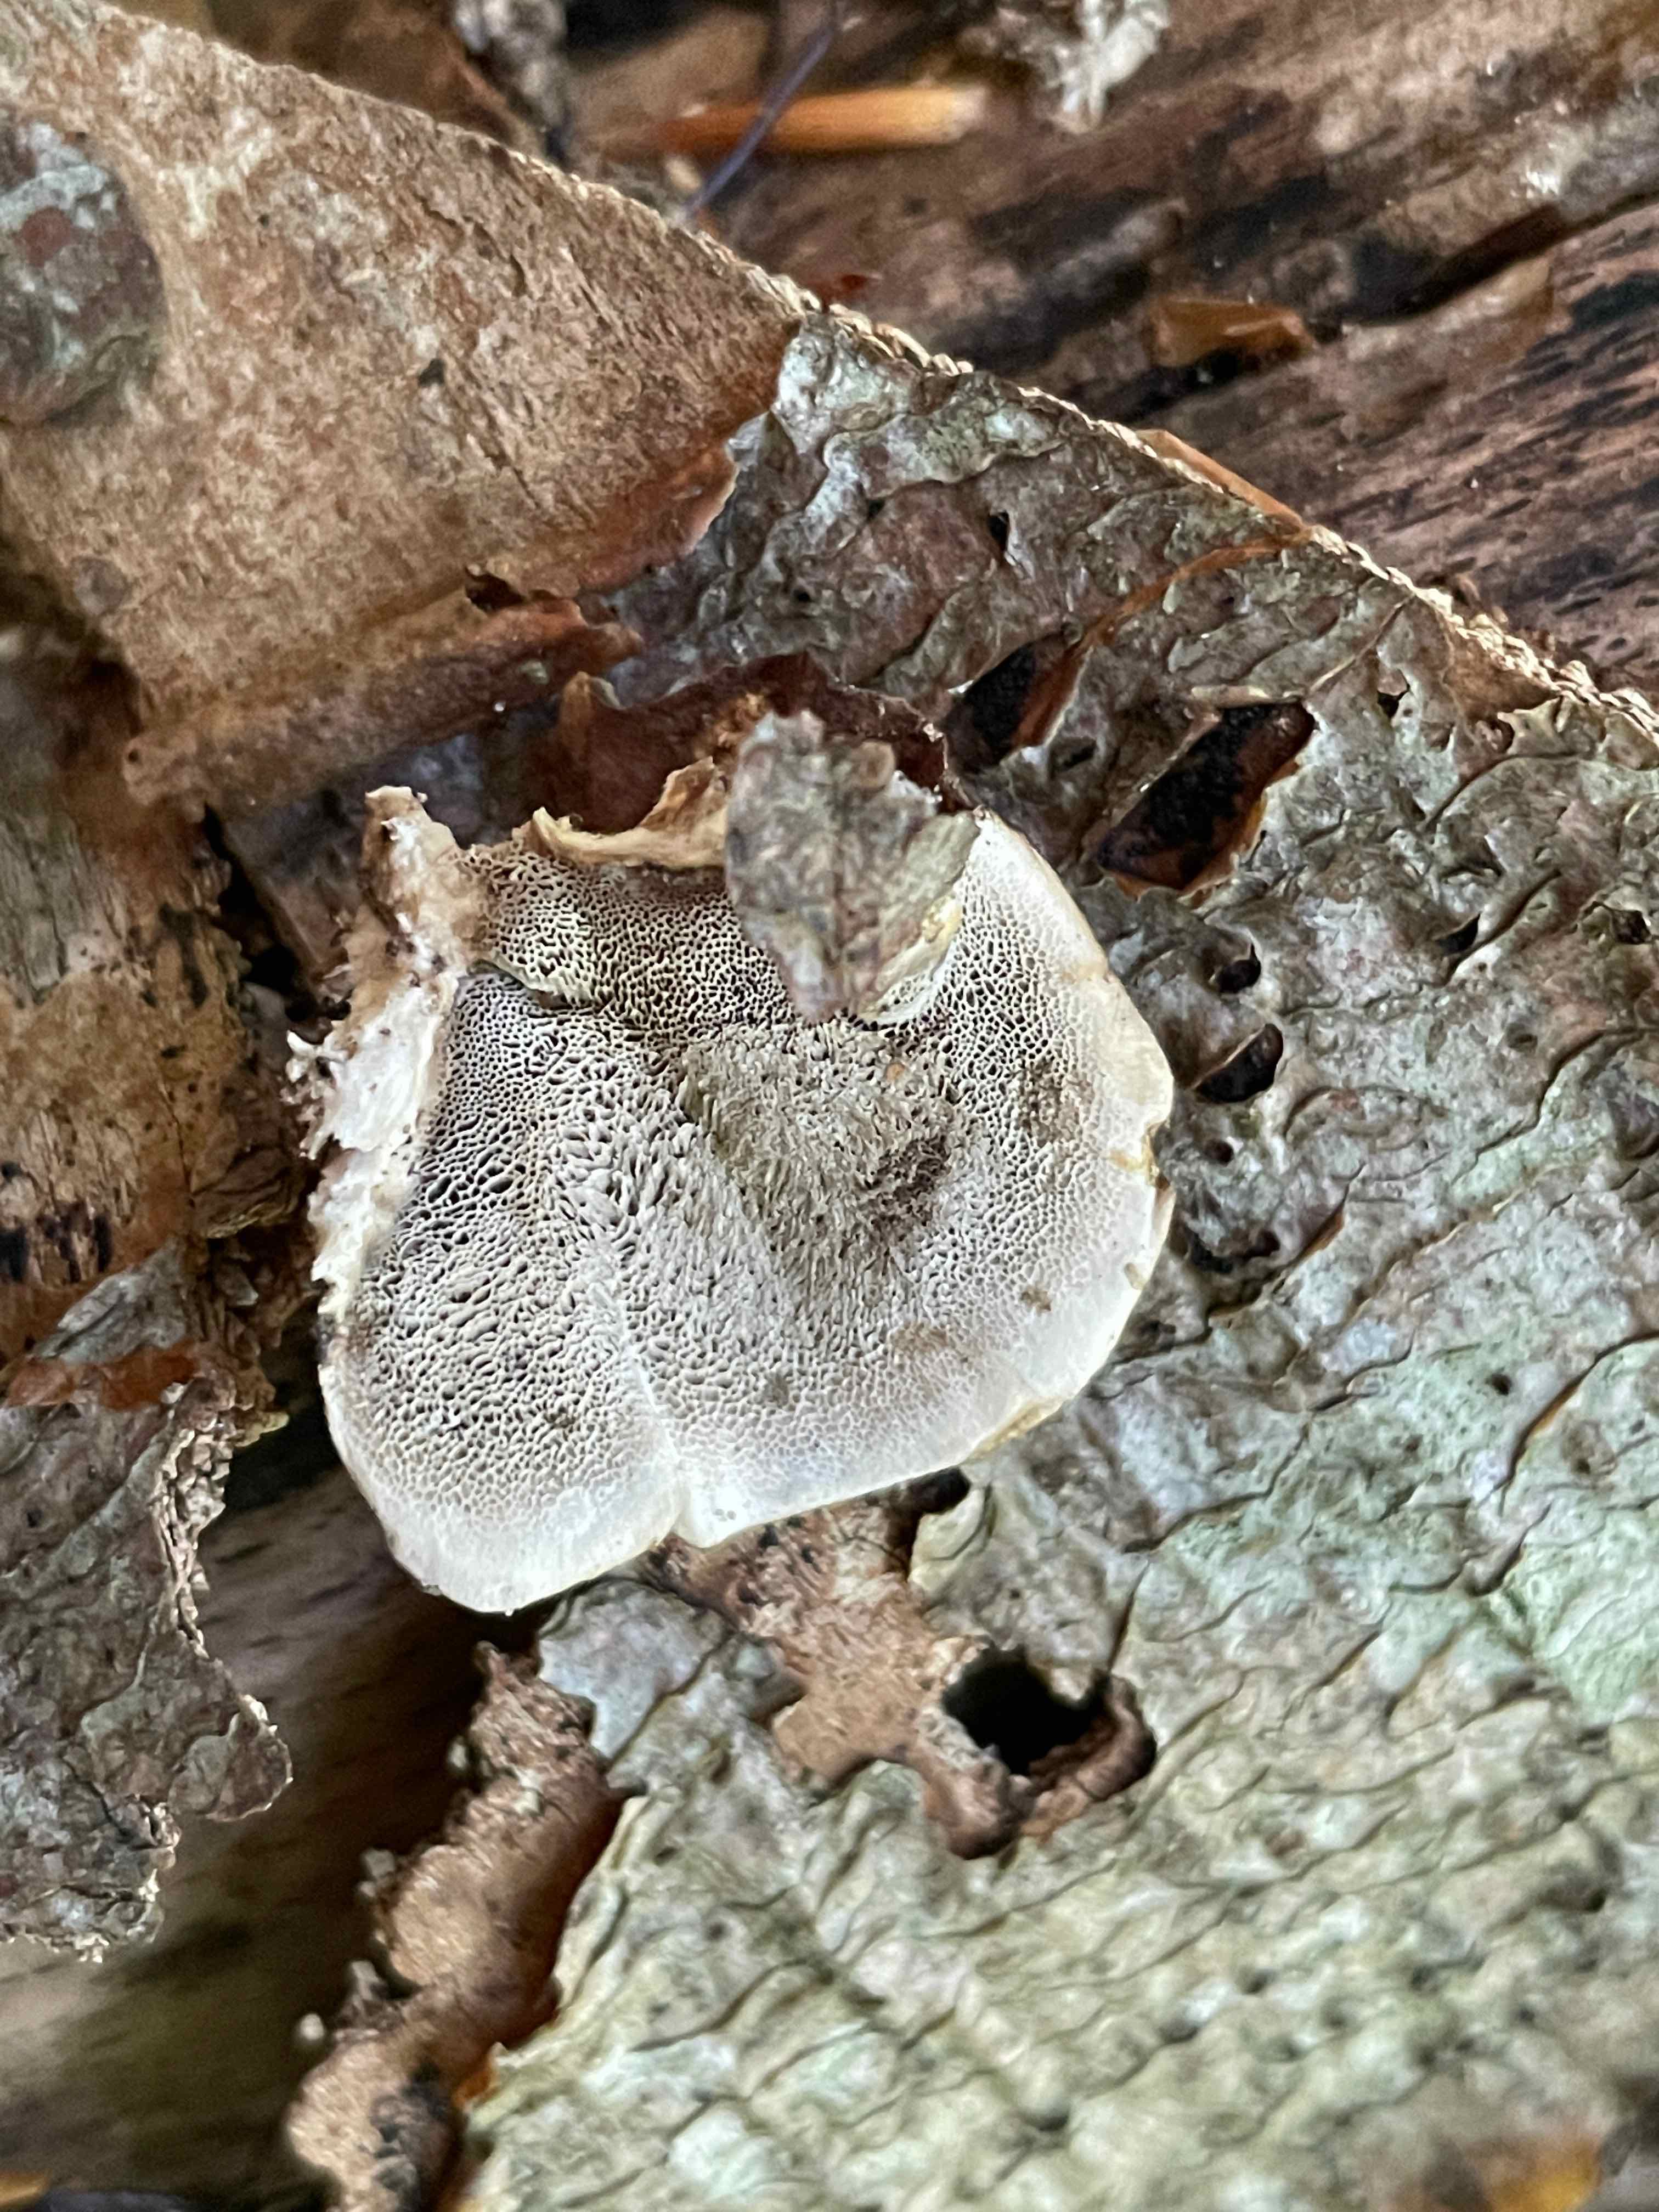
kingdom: Fungi
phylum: Basidiomycota
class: Agaricomycetes
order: Polyporales
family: Phanerochaetaceae
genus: Bjerkandera
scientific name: Bjerkandera adusta
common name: sveden sodporesvamp
